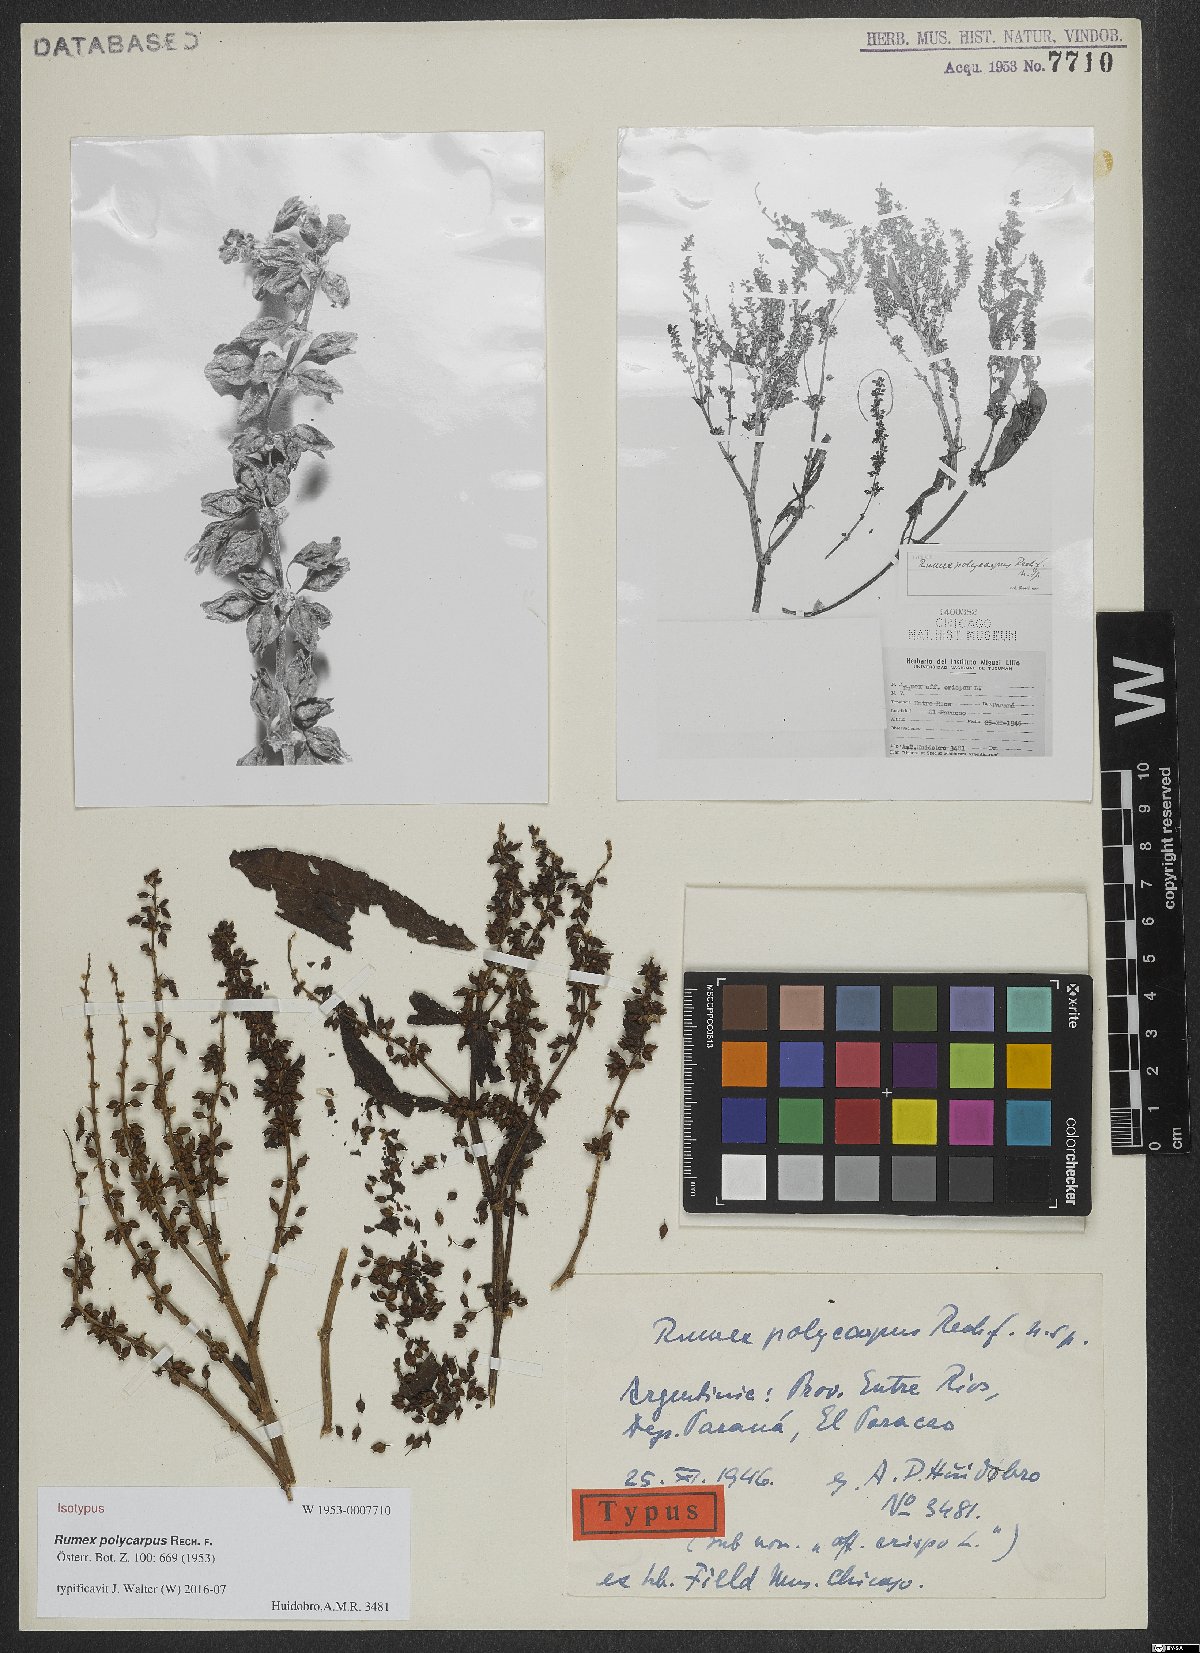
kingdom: Plantae
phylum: Tracheophyta
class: Magnoliopsida
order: Caryophyllales
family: Polygonaceae
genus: Rumex
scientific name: Rumex polycarpus
